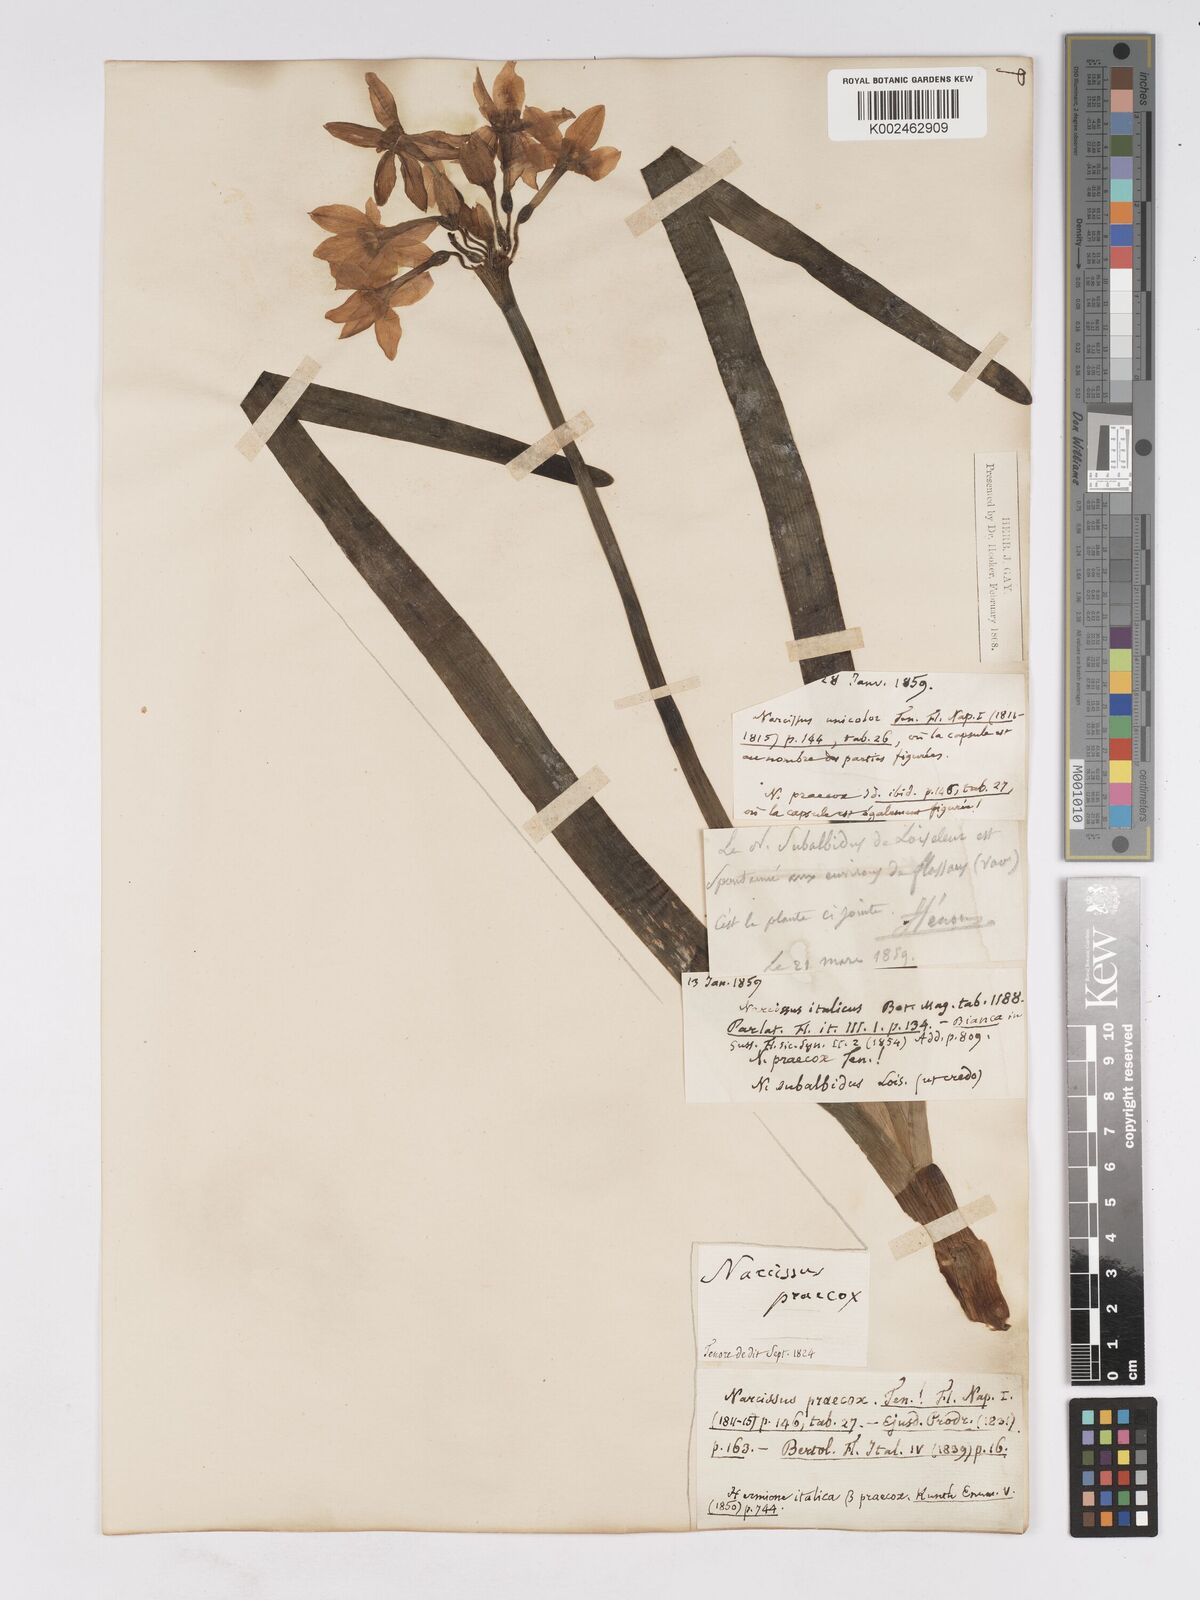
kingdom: Plantae
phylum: Tracheophyta
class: Liliopsida
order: Asparagales
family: Amaryllidaceae
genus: Narcissus
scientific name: Narcissus tazetta
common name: Bunch-flowered daffodil
